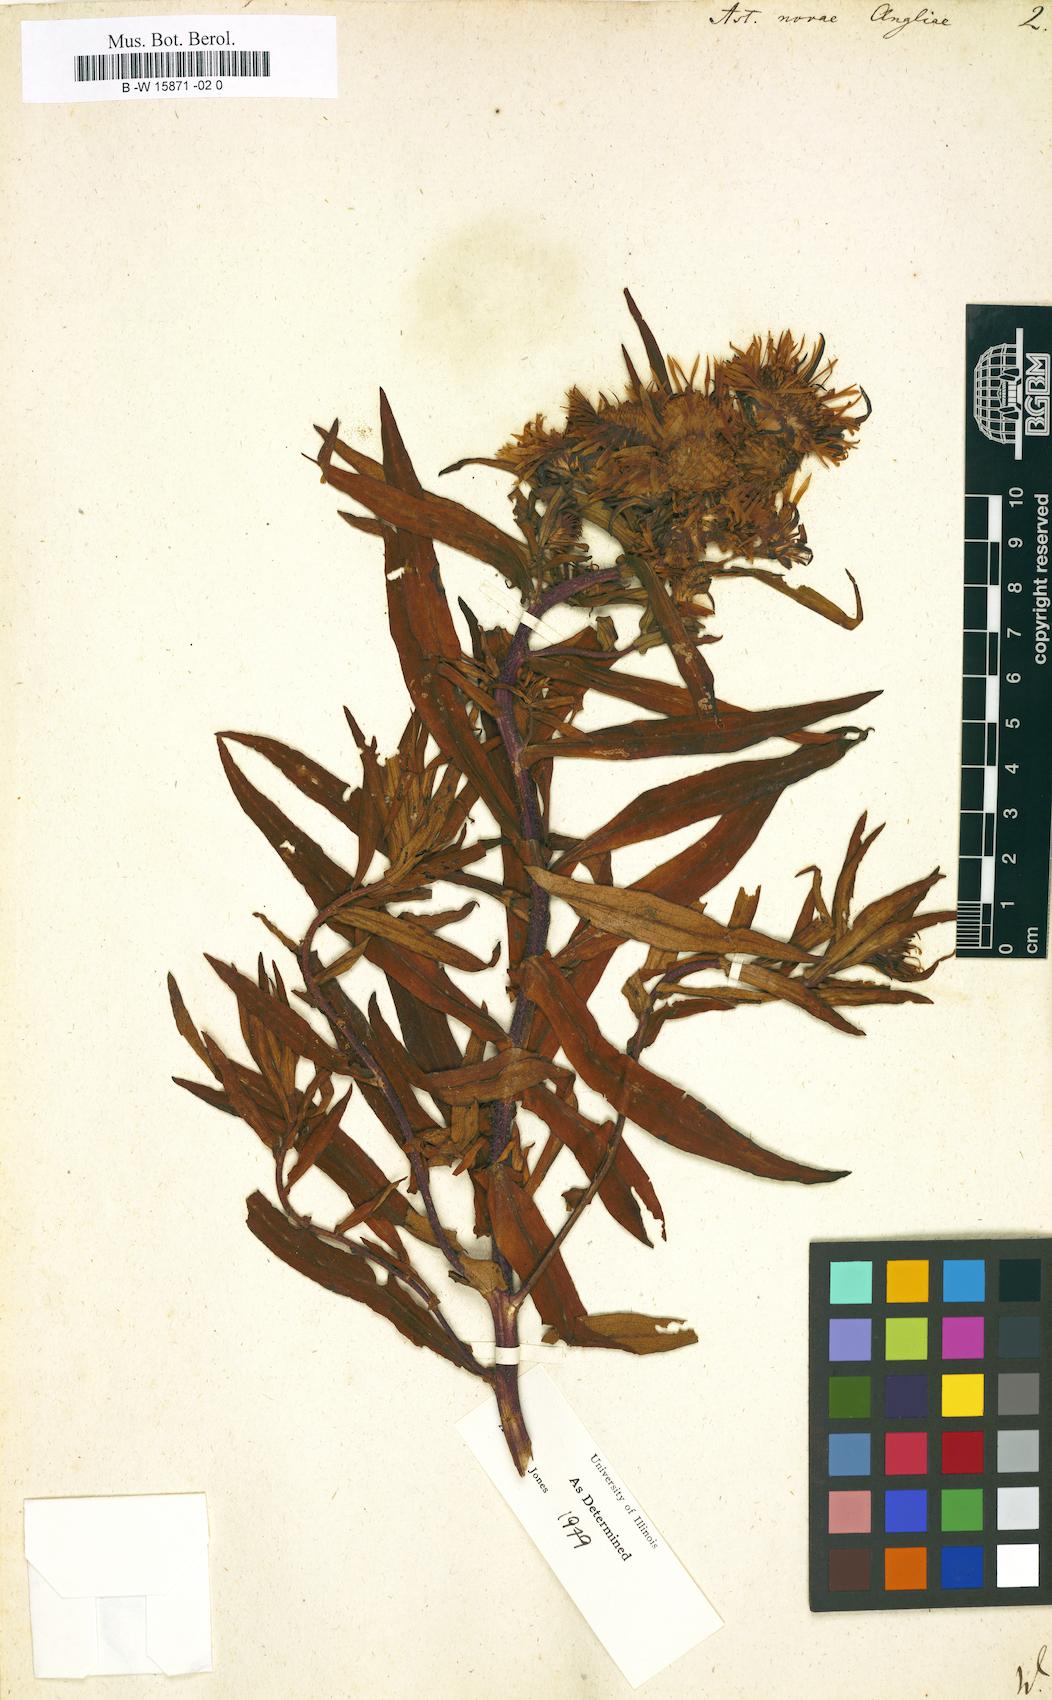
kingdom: Plantae
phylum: Tracheophyta
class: Magnoliopsida
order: Asterales
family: Asteraceae
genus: Symphyotrichum
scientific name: Symphyotrichum novae-angliae
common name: Michaelmas daisy
